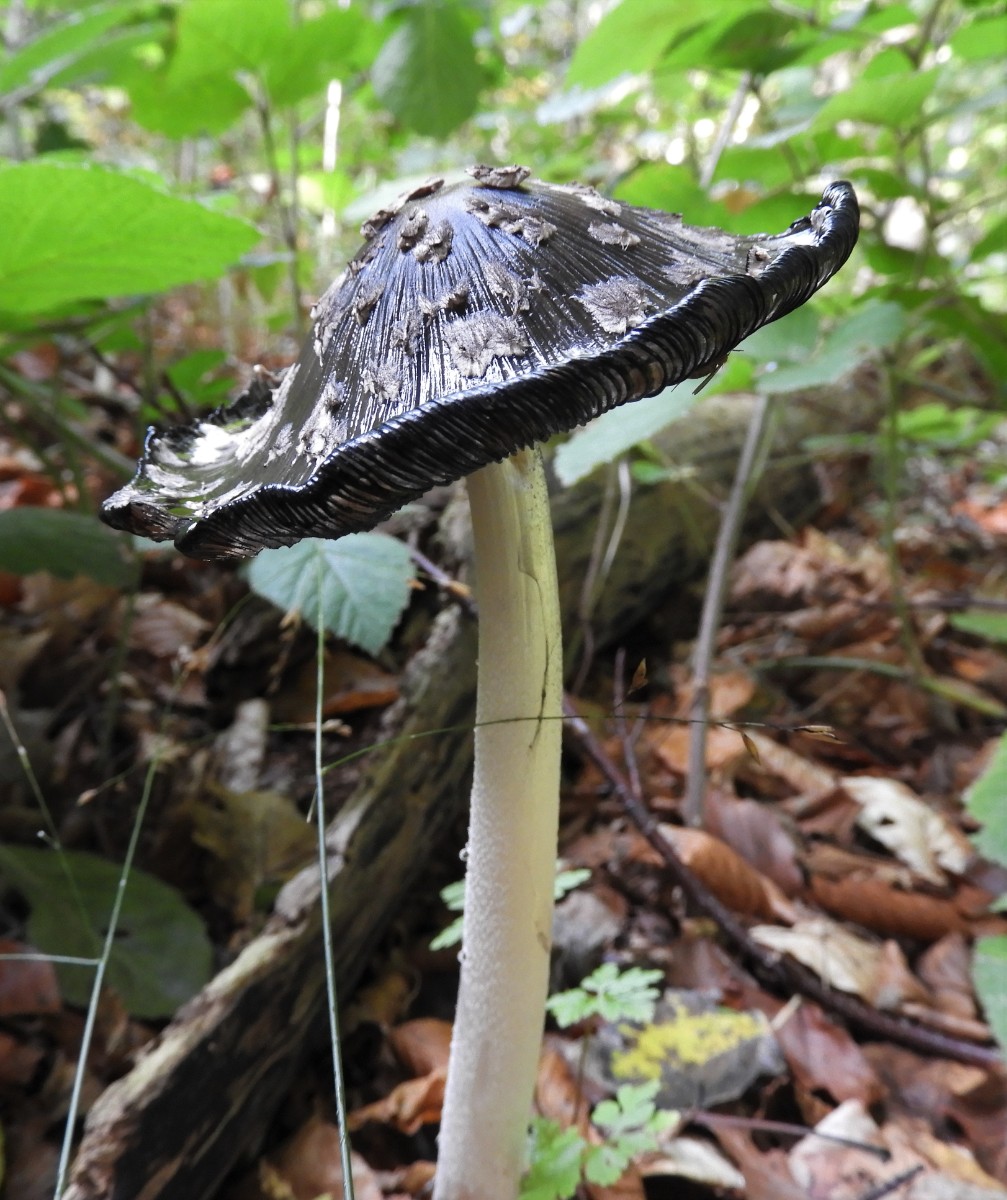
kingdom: Fungi
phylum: Basidiomycota
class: Agaricomycetes
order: Agaricales
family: Psathyrellaceae
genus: Coprinopsis
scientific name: Coprinopsis picacea
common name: skade-blækhat
